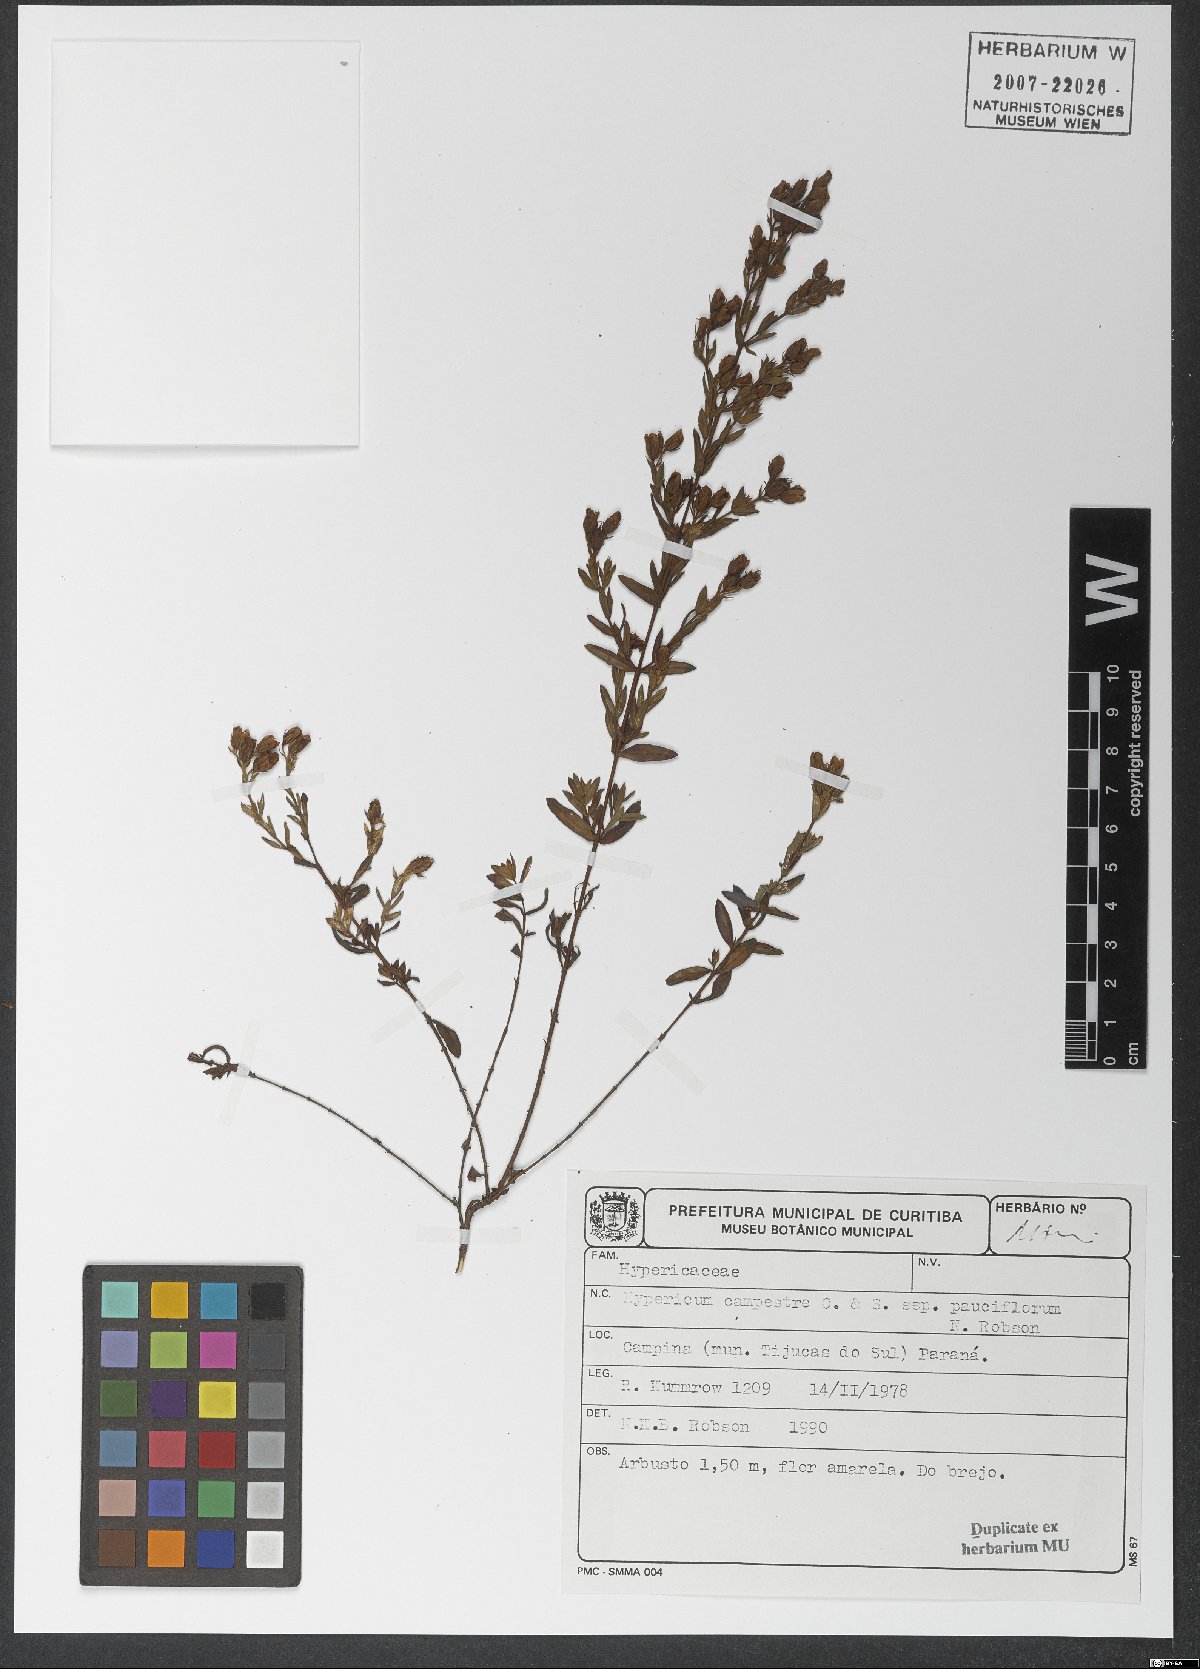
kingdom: Plantae
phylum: Tracheophyta
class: Magnoliopsida
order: Malpighiales
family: Hypericaceae
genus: Hypericum
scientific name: Hypericum campestre
